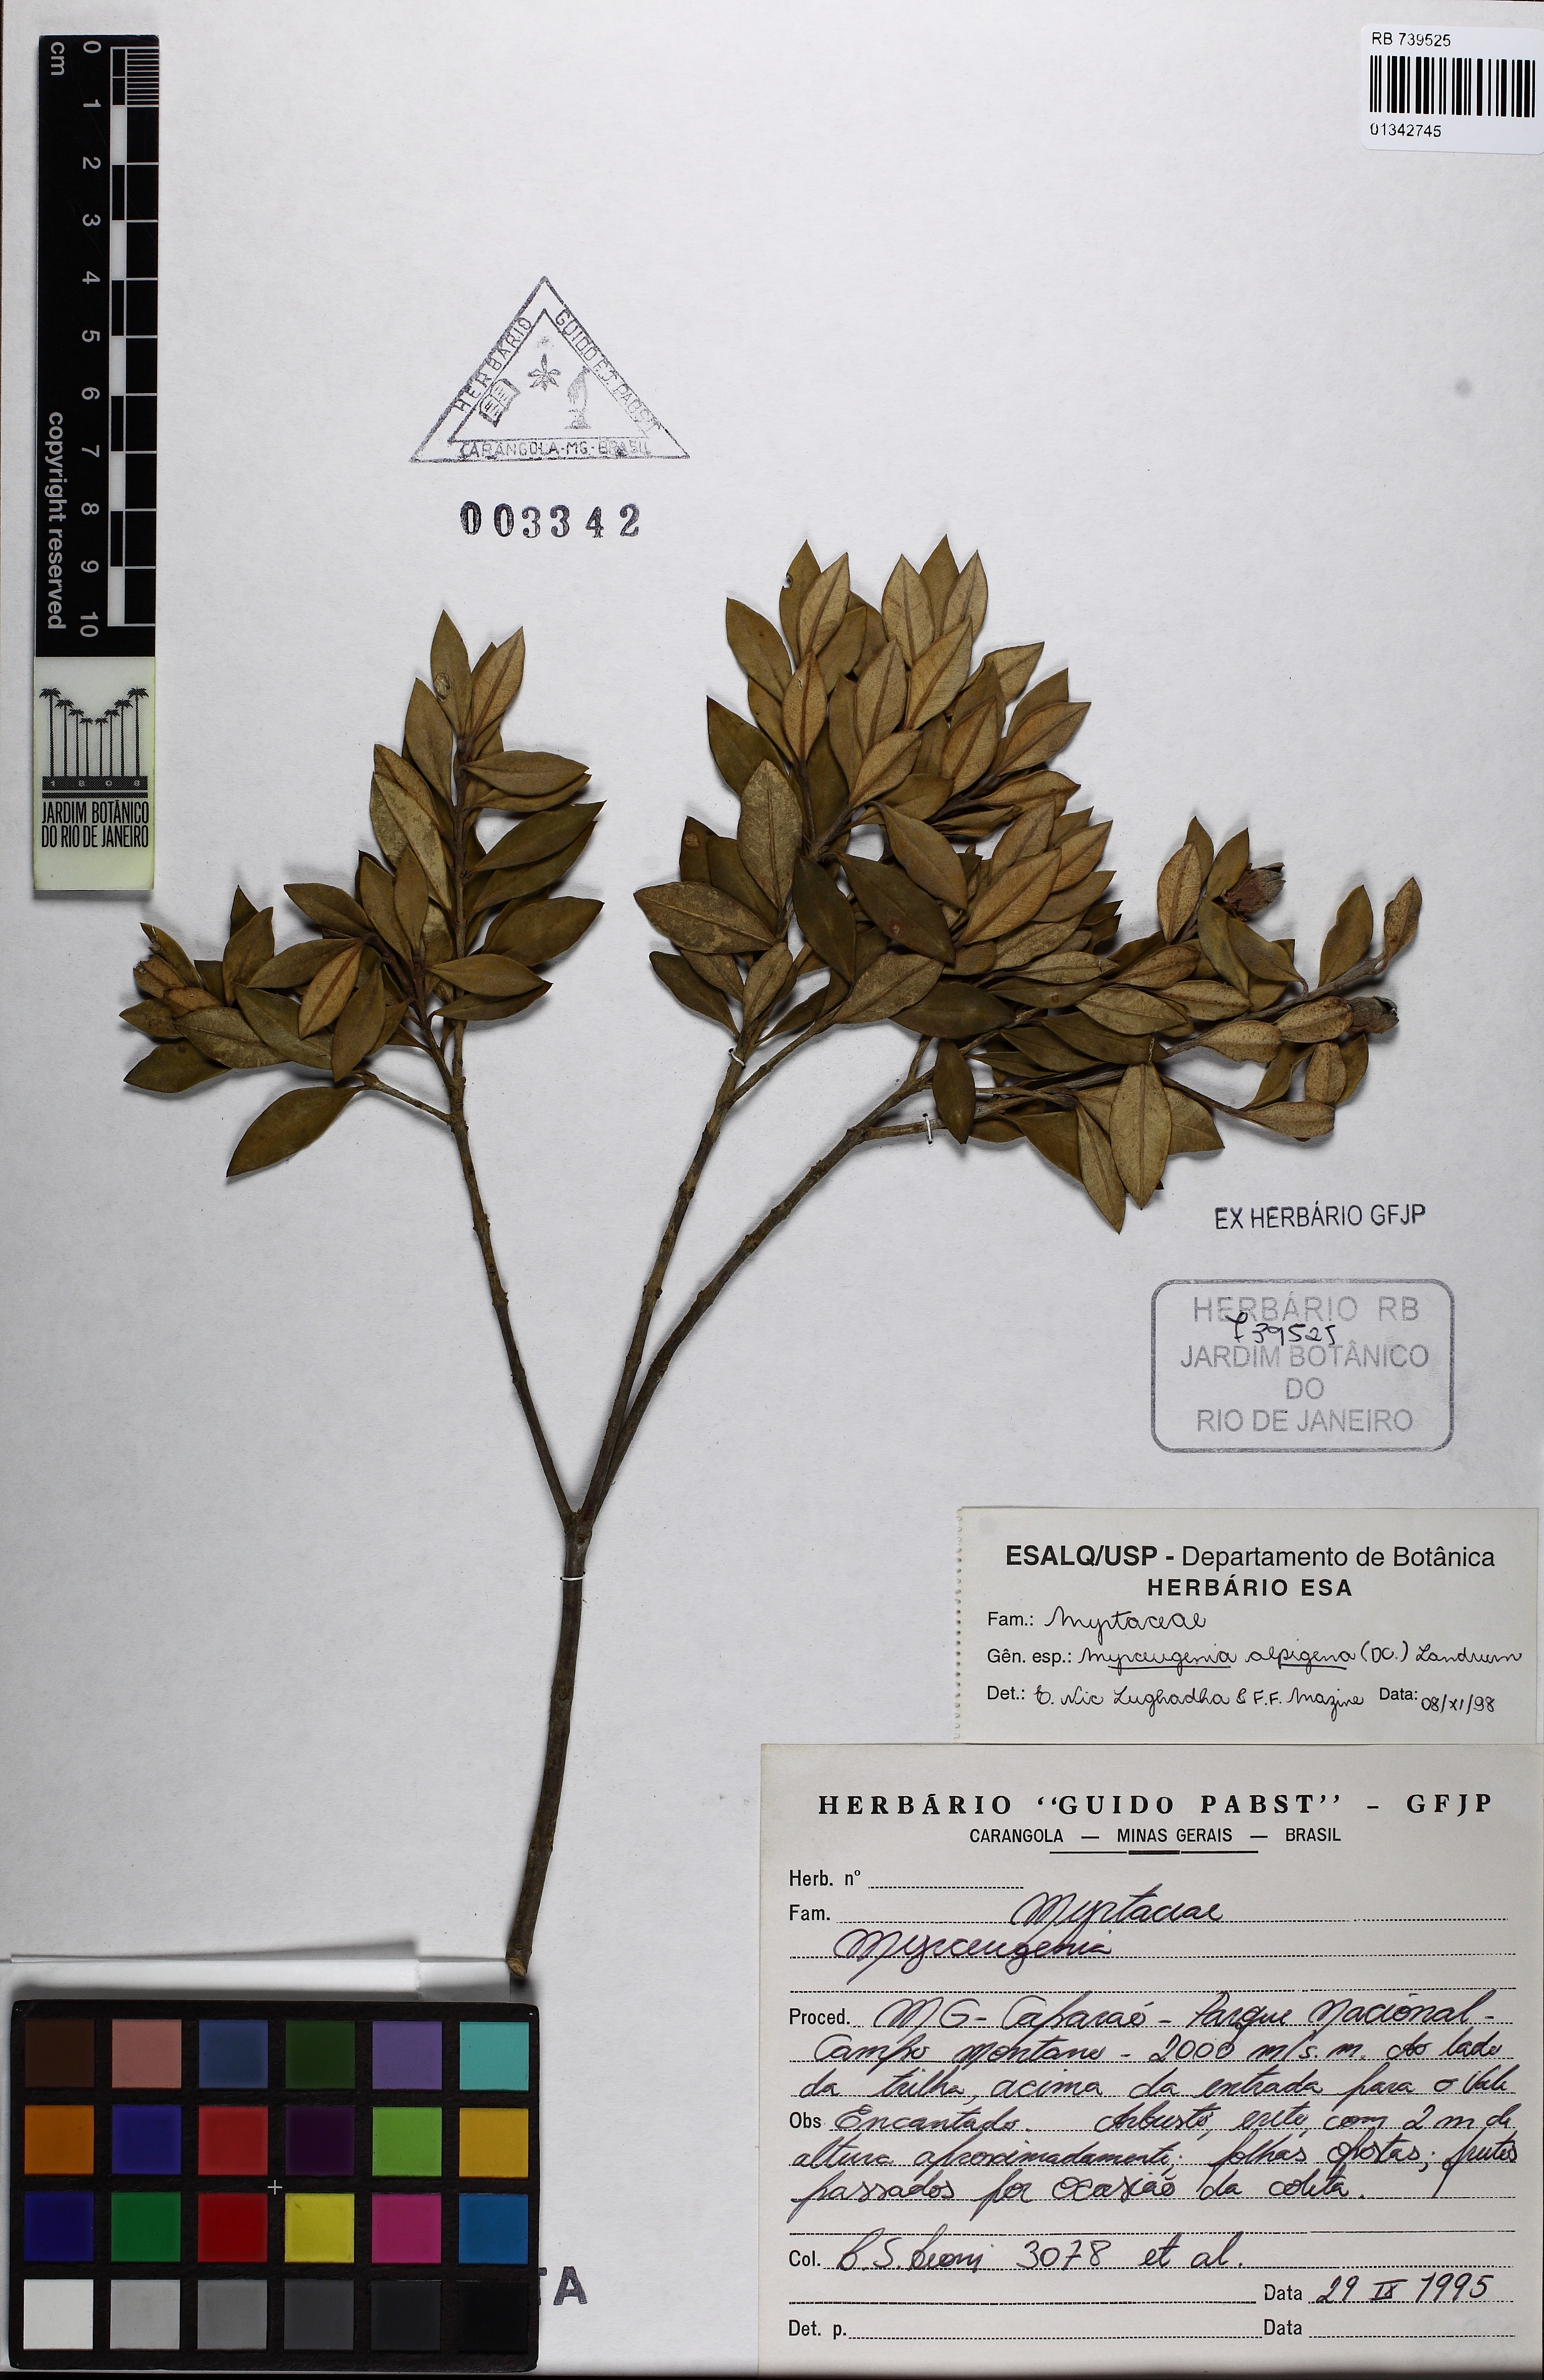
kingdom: Plantae
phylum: Tracheophyta
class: Magnoliopsida
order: Myrtales
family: Myrtaceae
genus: Myrceugenia
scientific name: Myrceugenia alpigena
